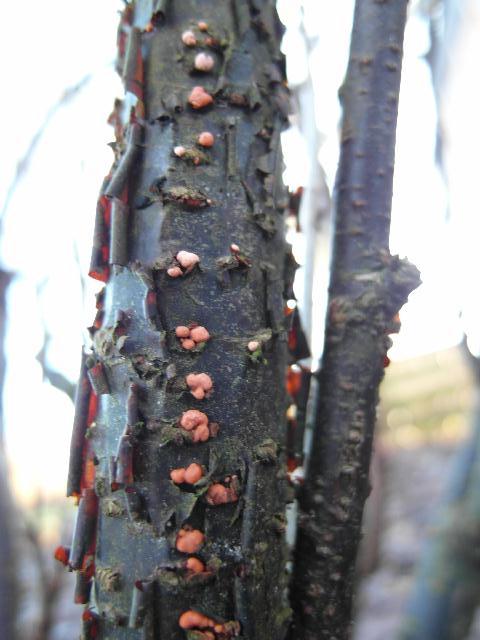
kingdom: Fungi
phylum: Ascomycota
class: Sordariomycetes
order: Hypocreales
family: Nectriaceae
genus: Nectria
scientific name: Nectria cinnabarina
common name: almindelig cinnobersvamp
